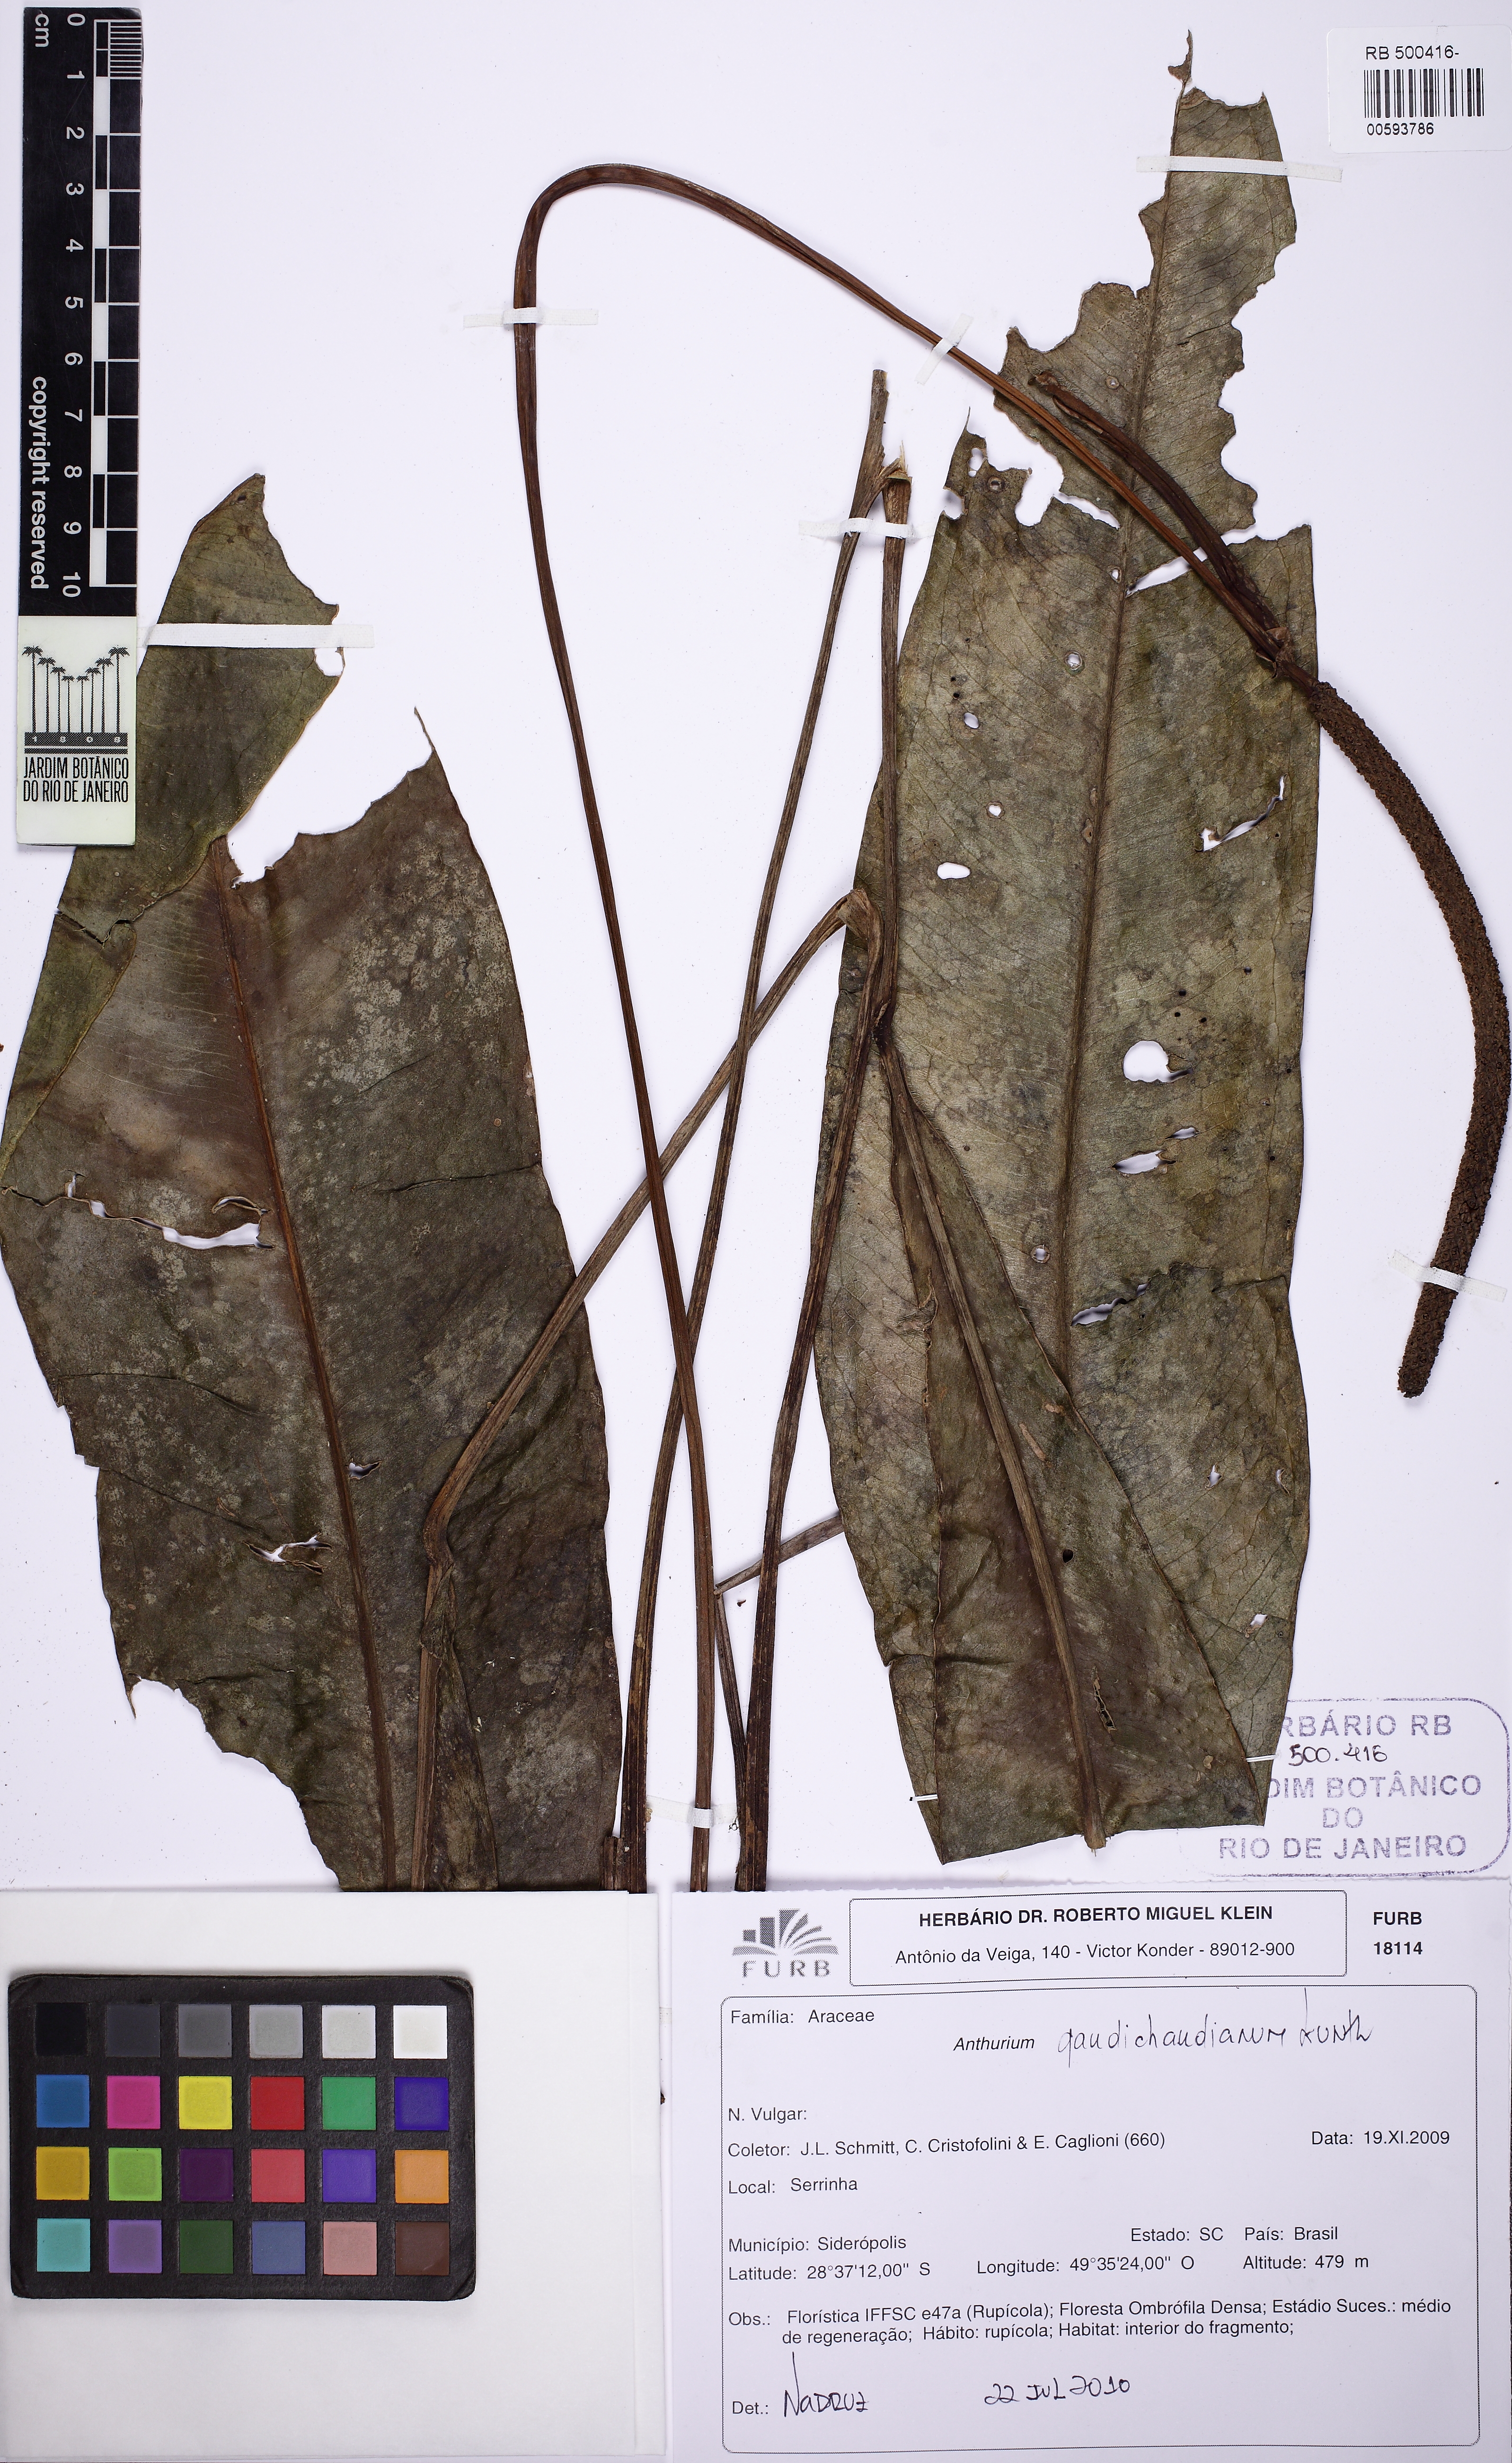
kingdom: Plantae
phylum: Tracheophyta
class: Liliopsida
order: Alismatales
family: Araceae
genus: Anthurium
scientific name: Anthurium gaudichaudianum
